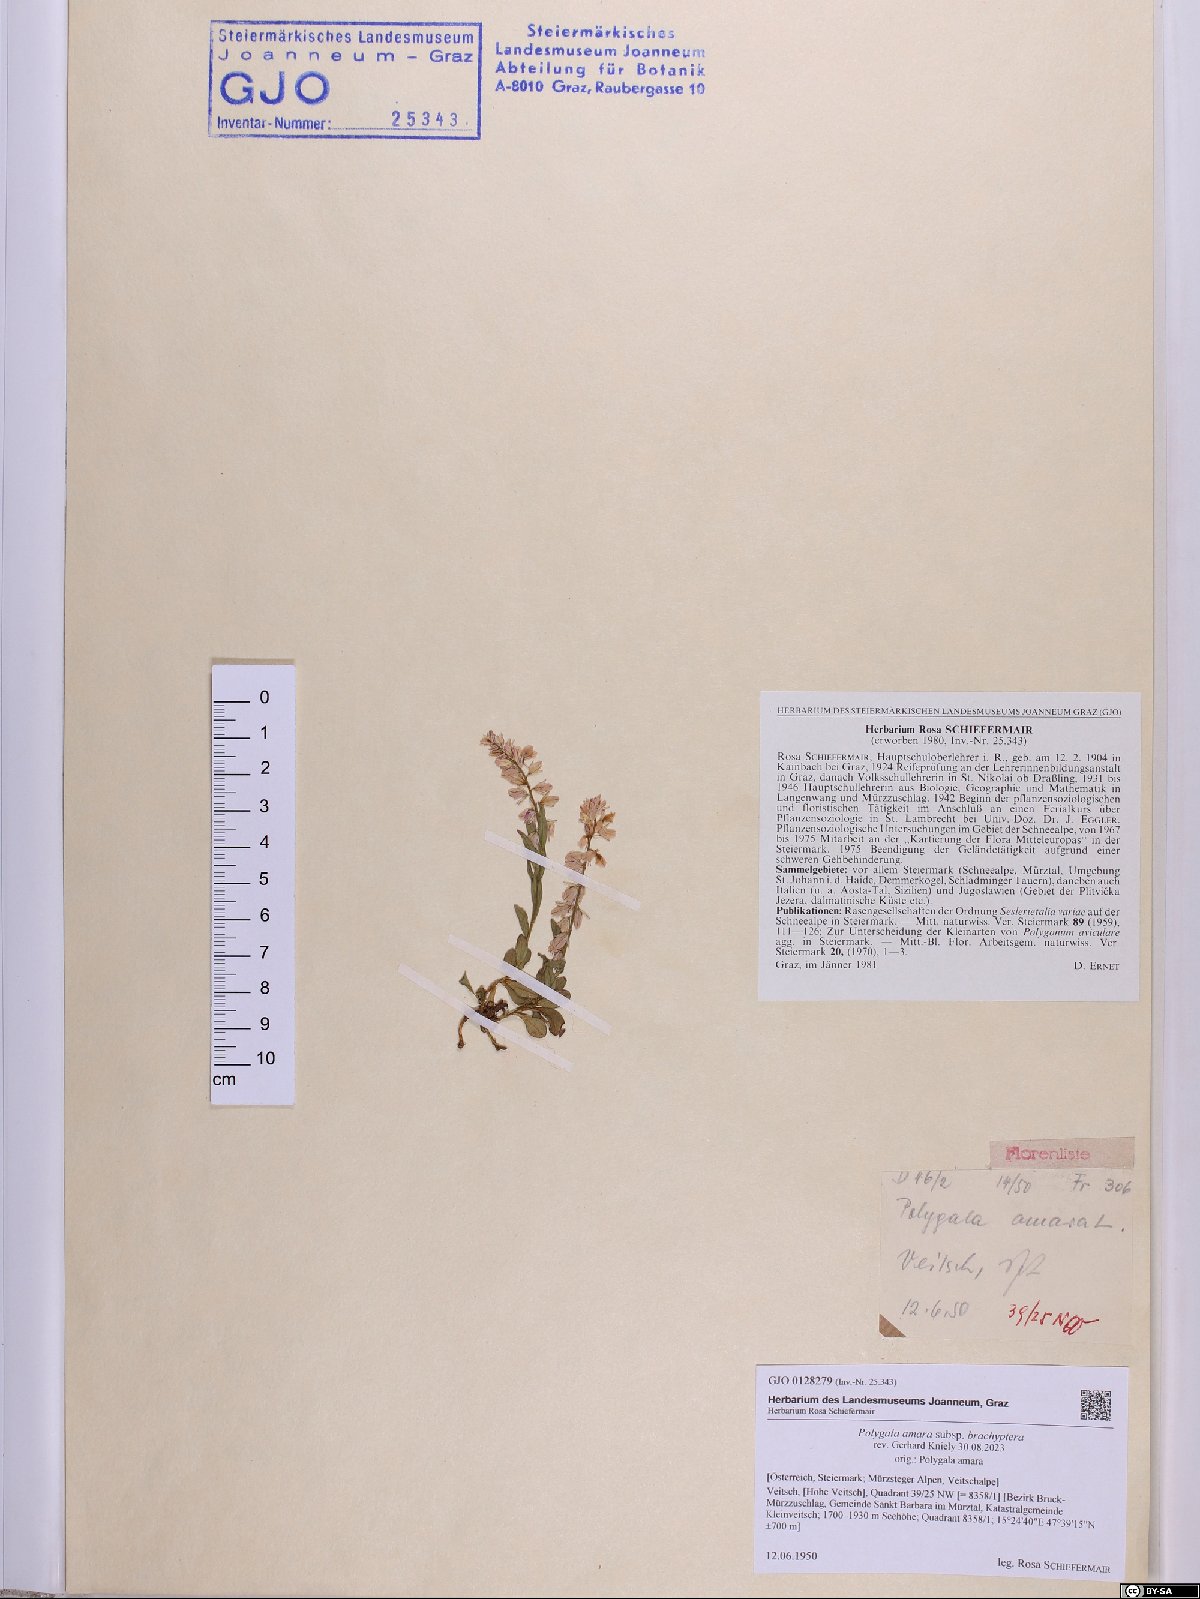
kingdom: Plantae
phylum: Tracheophyta
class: Magnoliopsida
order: Fabales
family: Polygalaceae
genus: Polygala
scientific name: Polygala amara
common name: Milkwort
